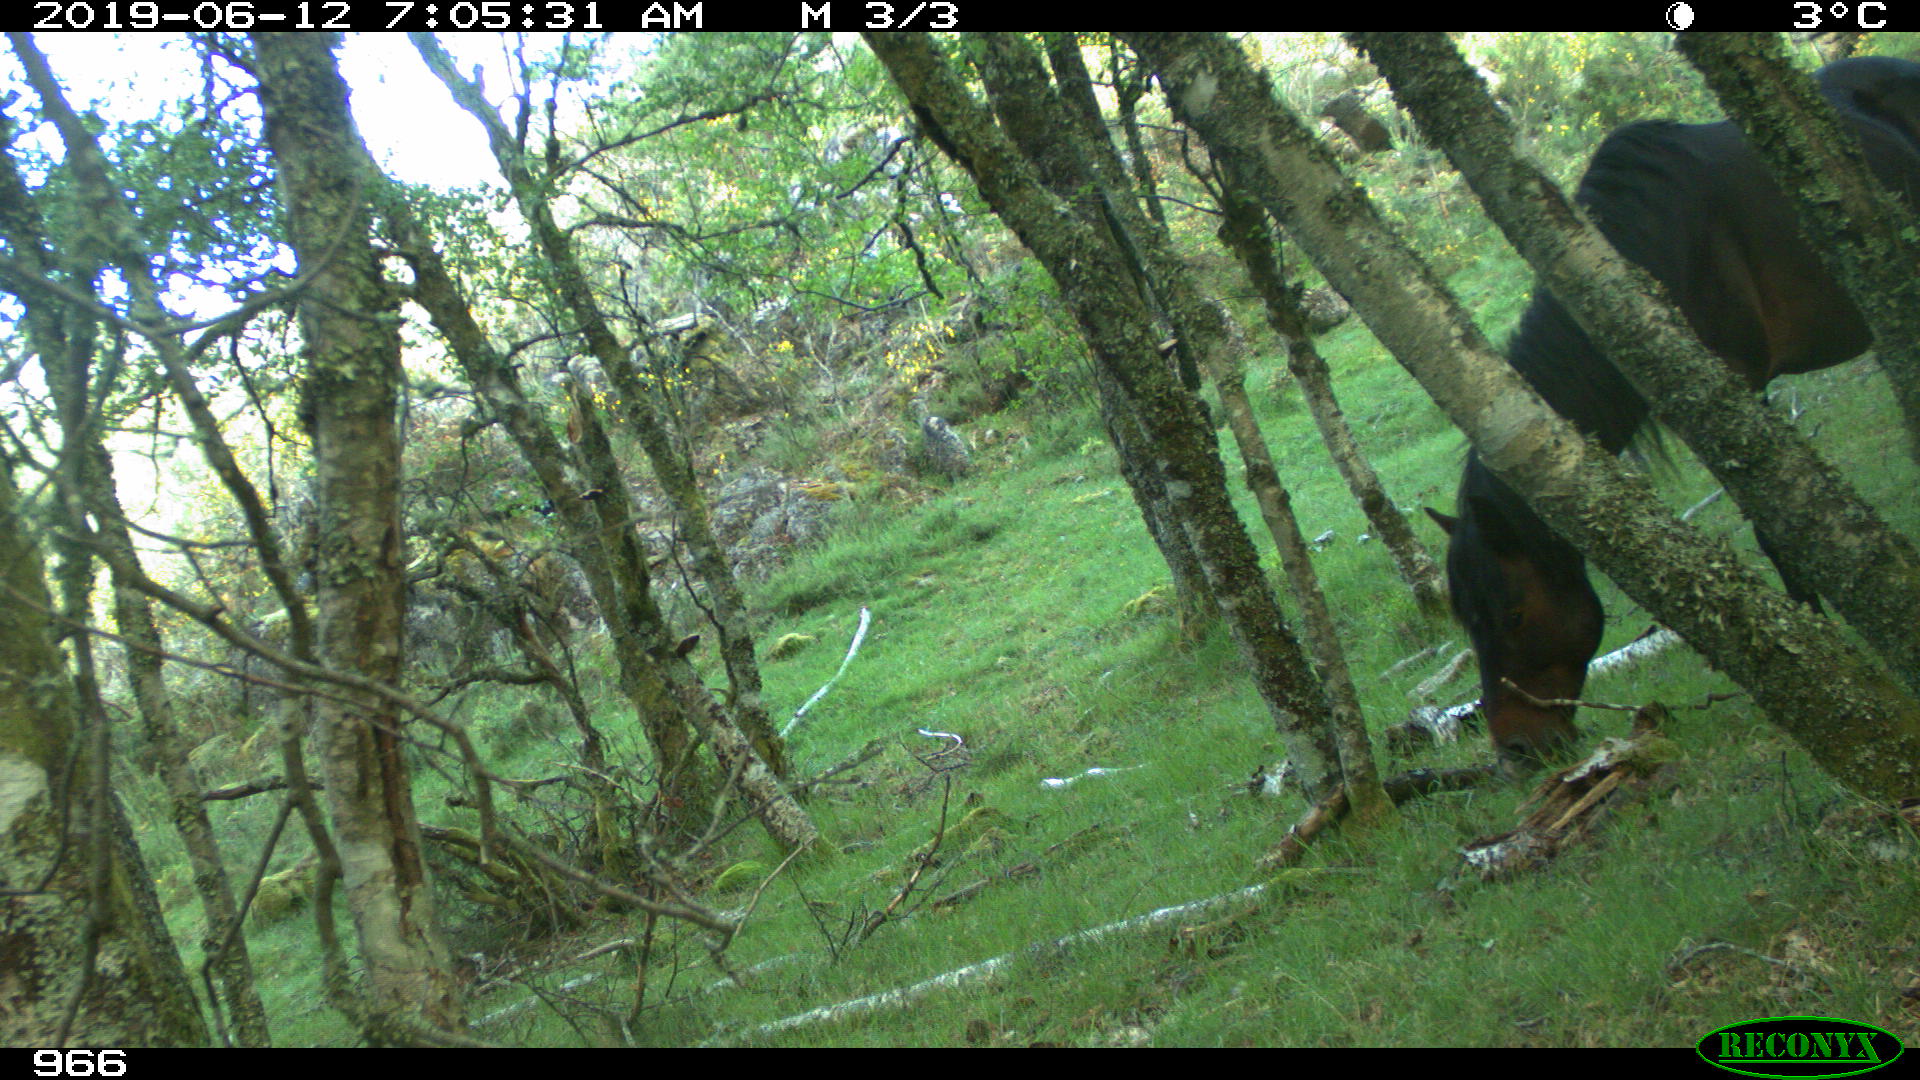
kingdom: Animalia
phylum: Chordata
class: Mammalia
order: Perissodactyla
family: Equidae
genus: Equus
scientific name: Equus caballus
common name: Horse
